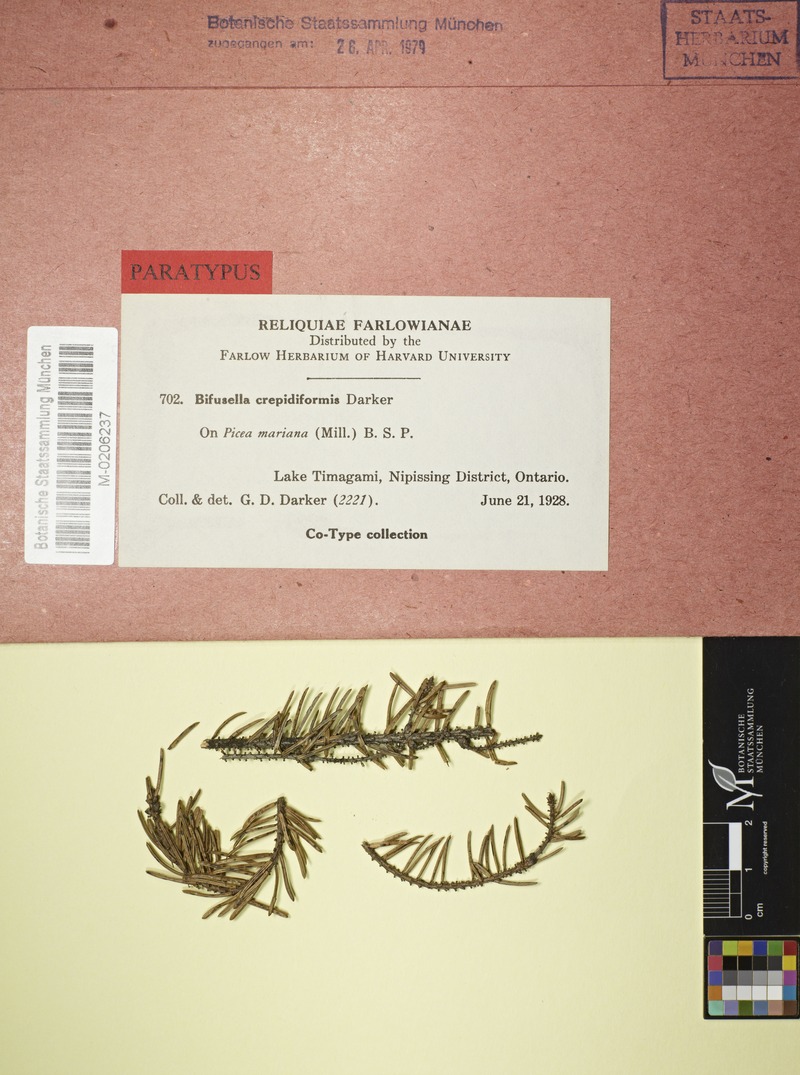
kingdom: Plantae
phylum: Tracheophyta
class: Pinopsida
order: Pinales
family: Pinaceae
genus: Picea
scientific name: Picea mariana
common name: Black spruce
